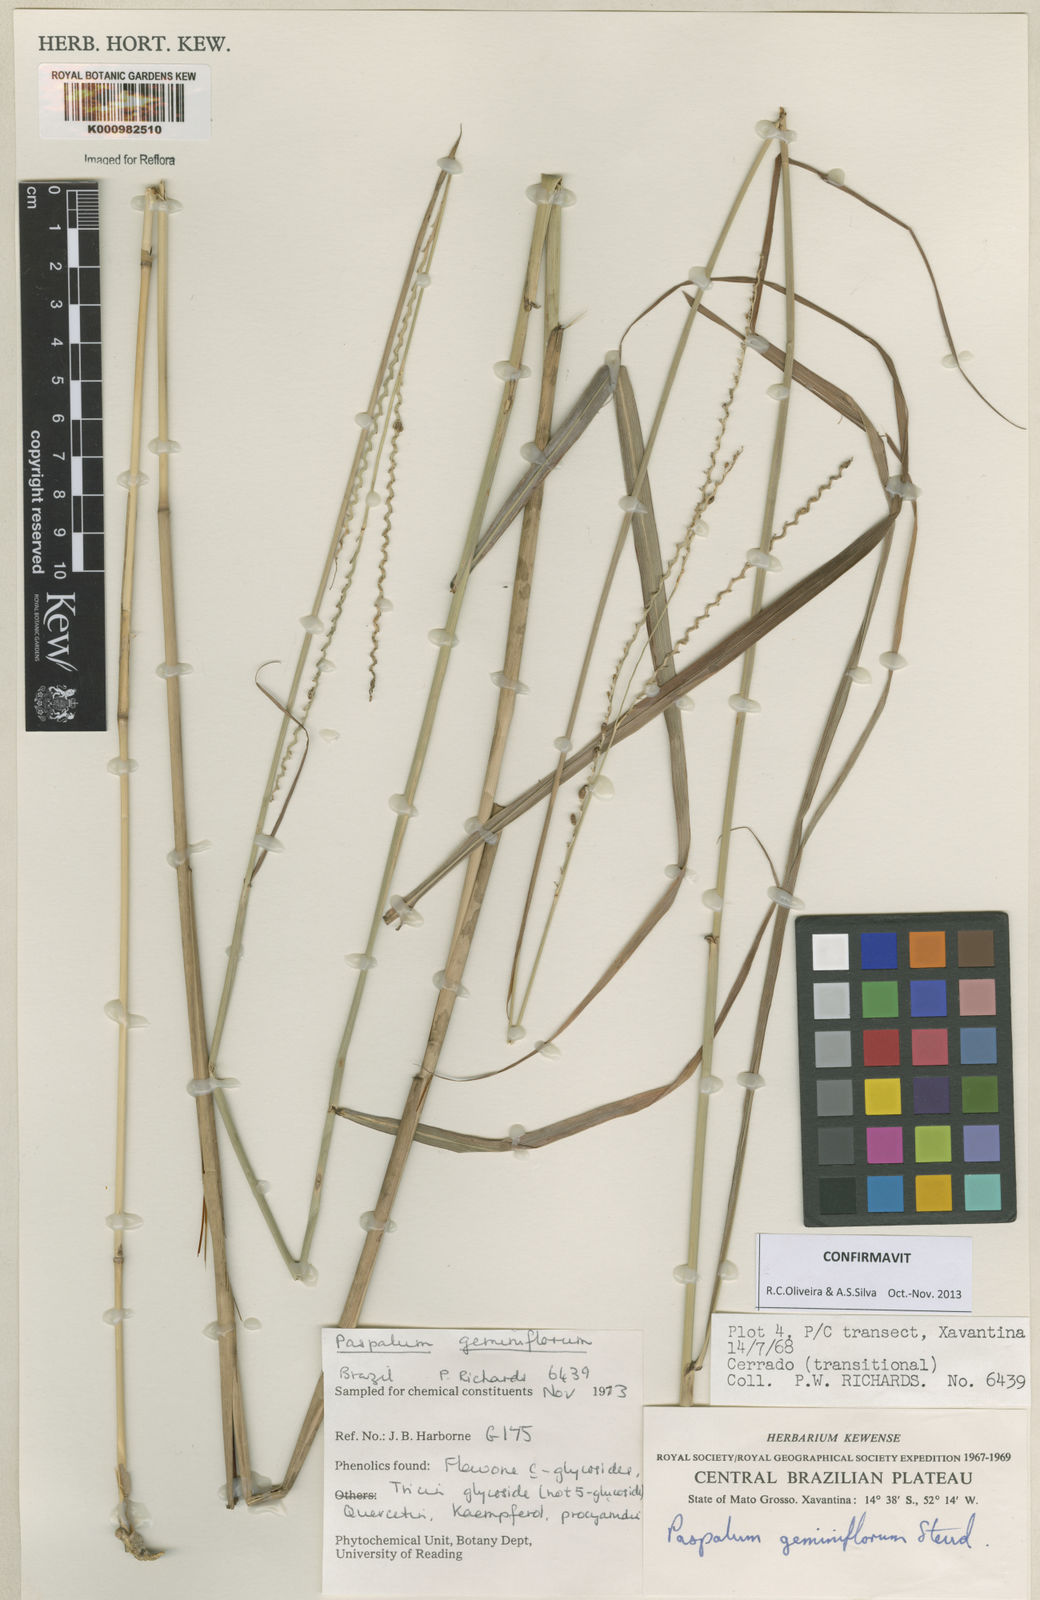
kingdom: Plantae
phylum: Tracheophyta
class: Liliopsida
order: Poales
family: Poaceae
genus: Paspalum
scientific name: Paspalum geminiflorum
